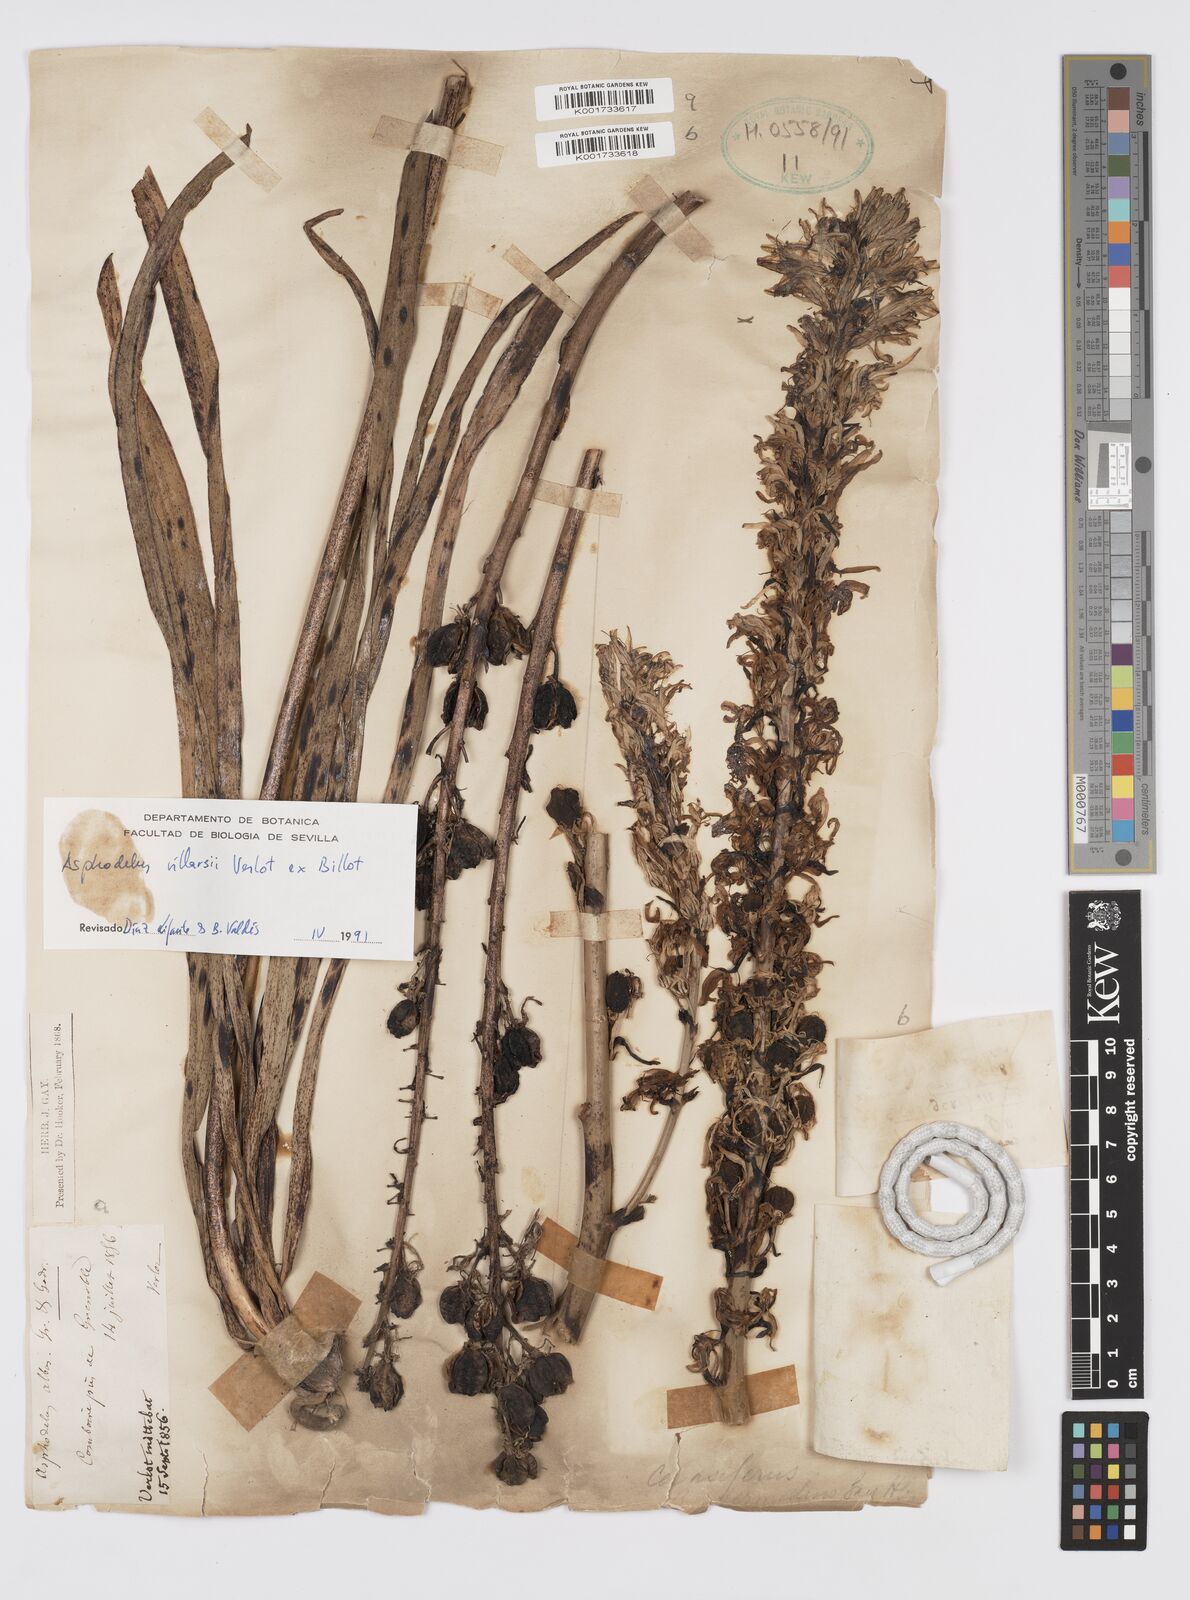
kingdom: Plantae
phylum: Tracheophyta
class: Liliopsida
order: Asparagales
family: Asphodelaceae
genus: Asphodelus
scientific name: Asphodelus cerasifer
